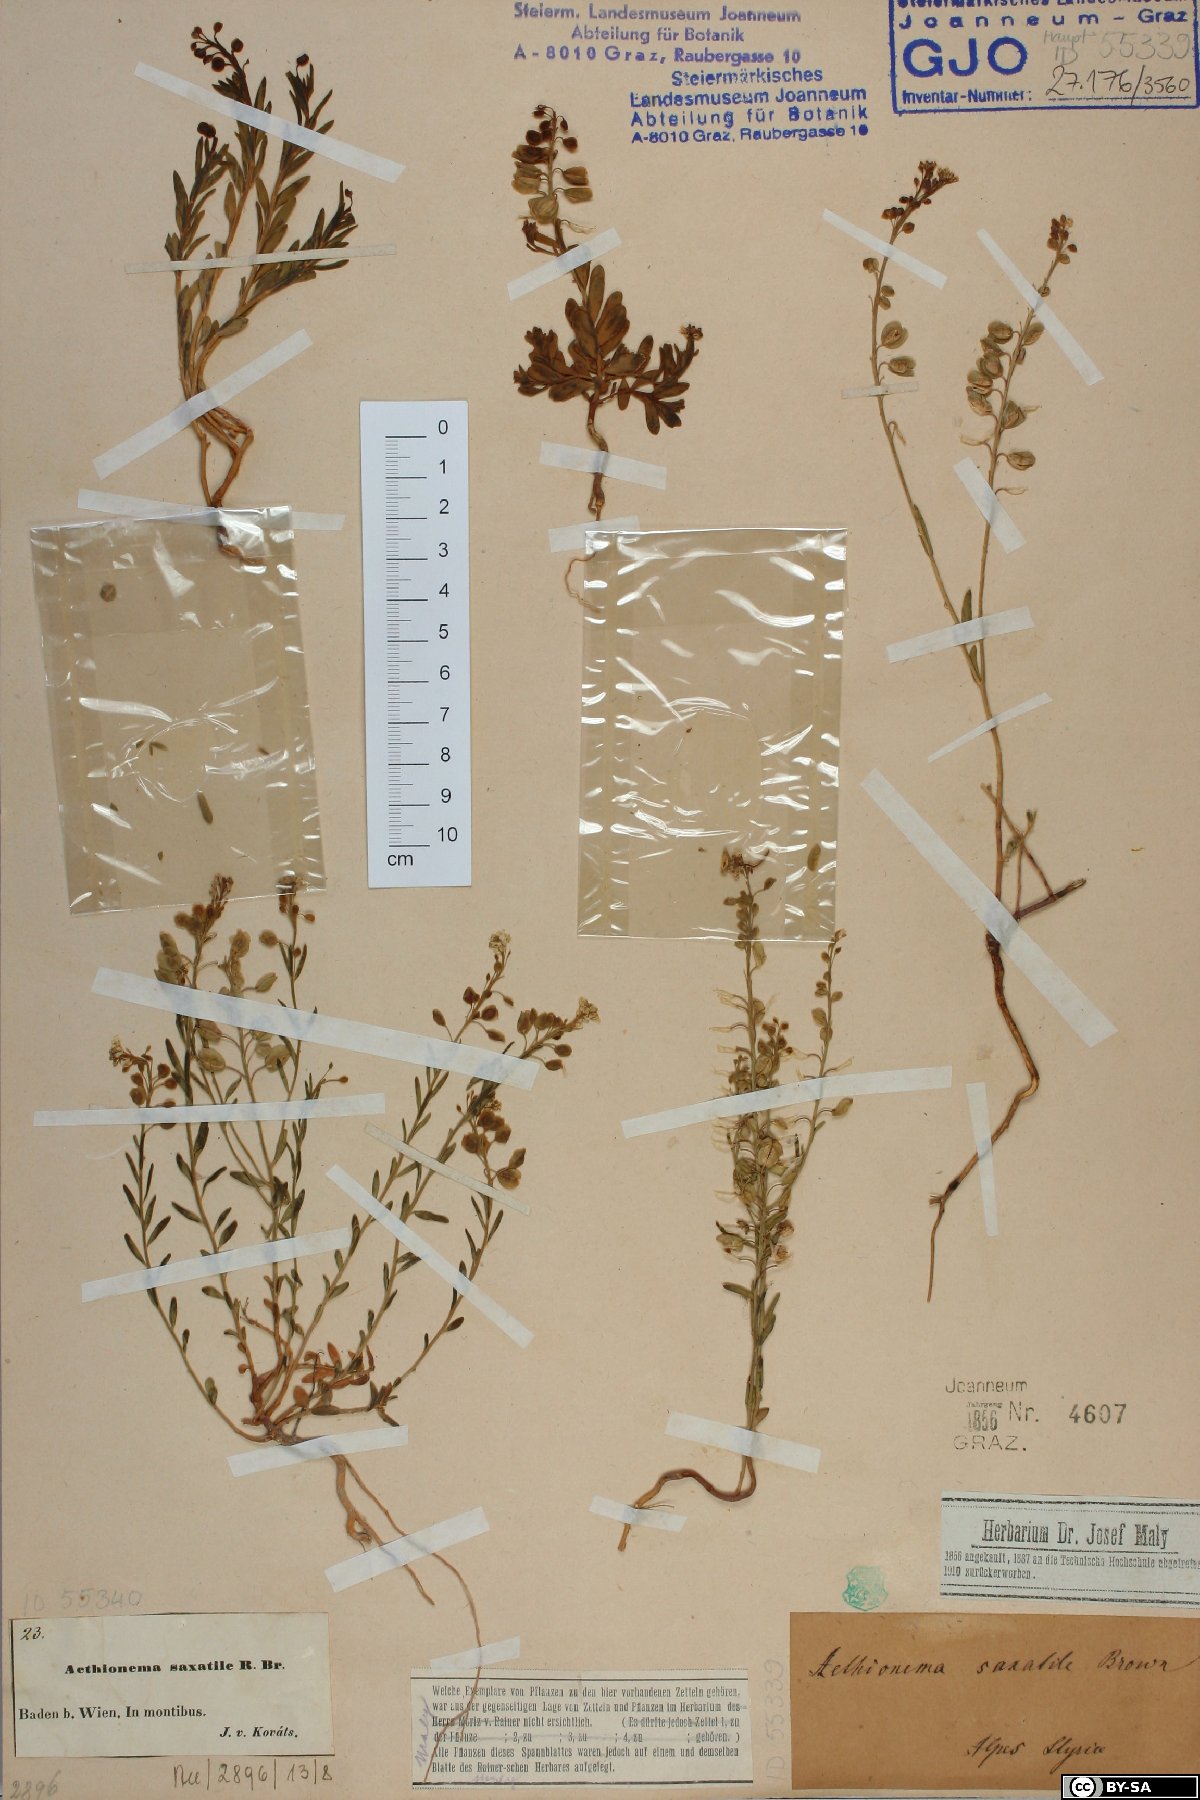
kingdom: Plantae
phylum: Tracheophyta
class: Magnoliopsida
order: Brassicales
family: Brassicaceae
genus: Aethionema
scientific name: Aethionema saxatile
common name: Burnt candytuft
